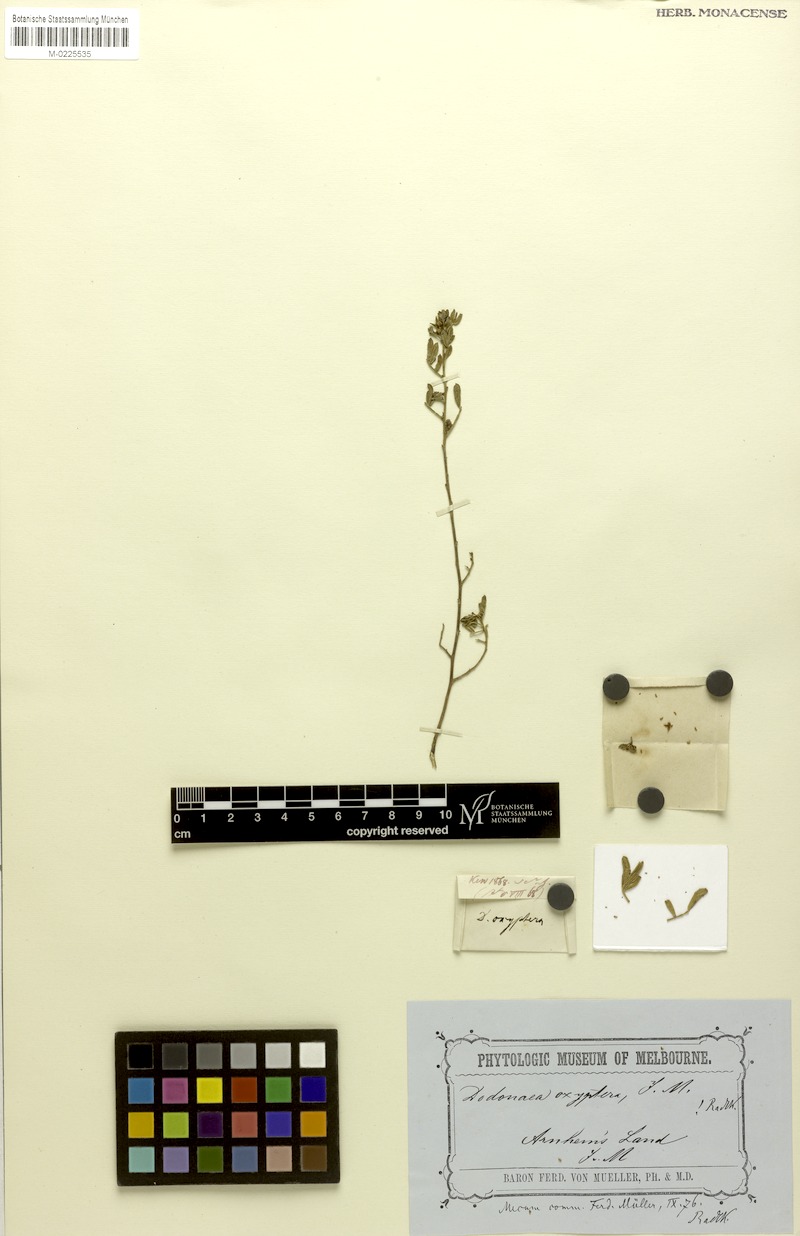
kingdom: Plantae
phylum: Tracheophyta
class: Magnoliopsida
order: Sapindales
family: Sapindaceae
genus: Dodonaea
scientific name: Dodonaea oxyptera
